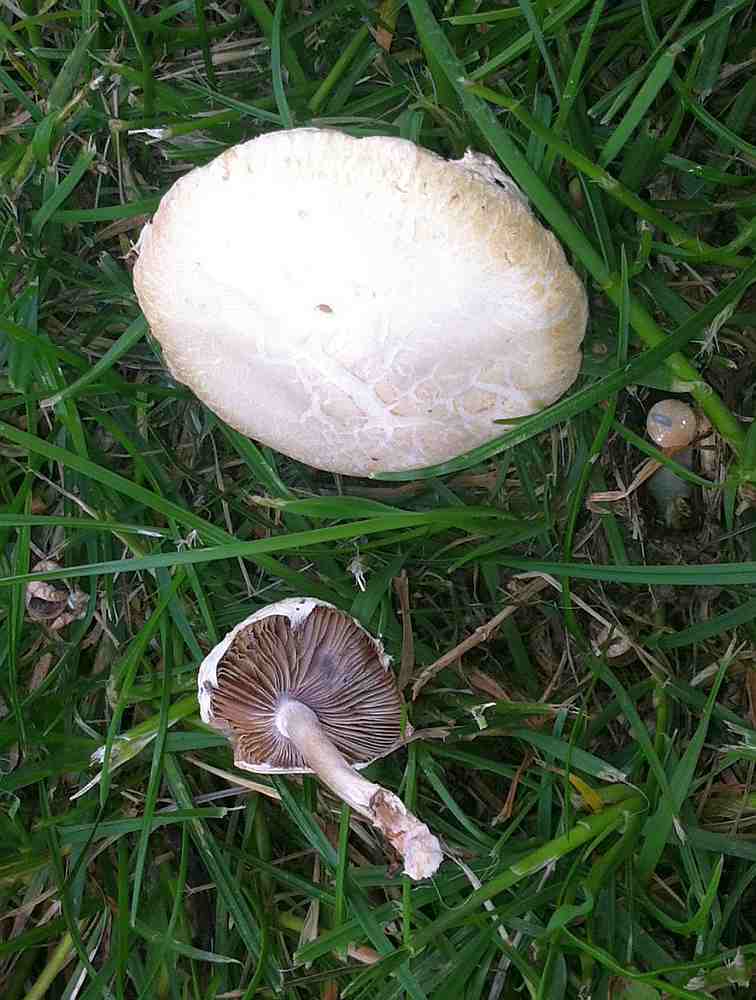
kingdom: Fungi
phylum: Basidiomycota
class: Agaricomycetes
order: Agaricales
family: Strophariaceae
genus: Agrocybe
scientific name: Agrocybe dura
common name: fastkødet agerhat
